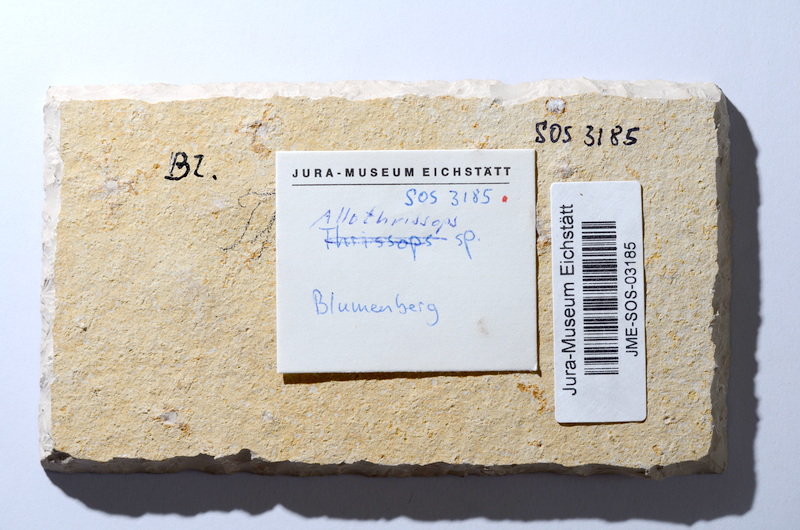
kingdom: Animalia
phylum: Chordata
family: Allothrissopidae
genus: Allothrissops
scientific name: Allothrissops mesogaster
